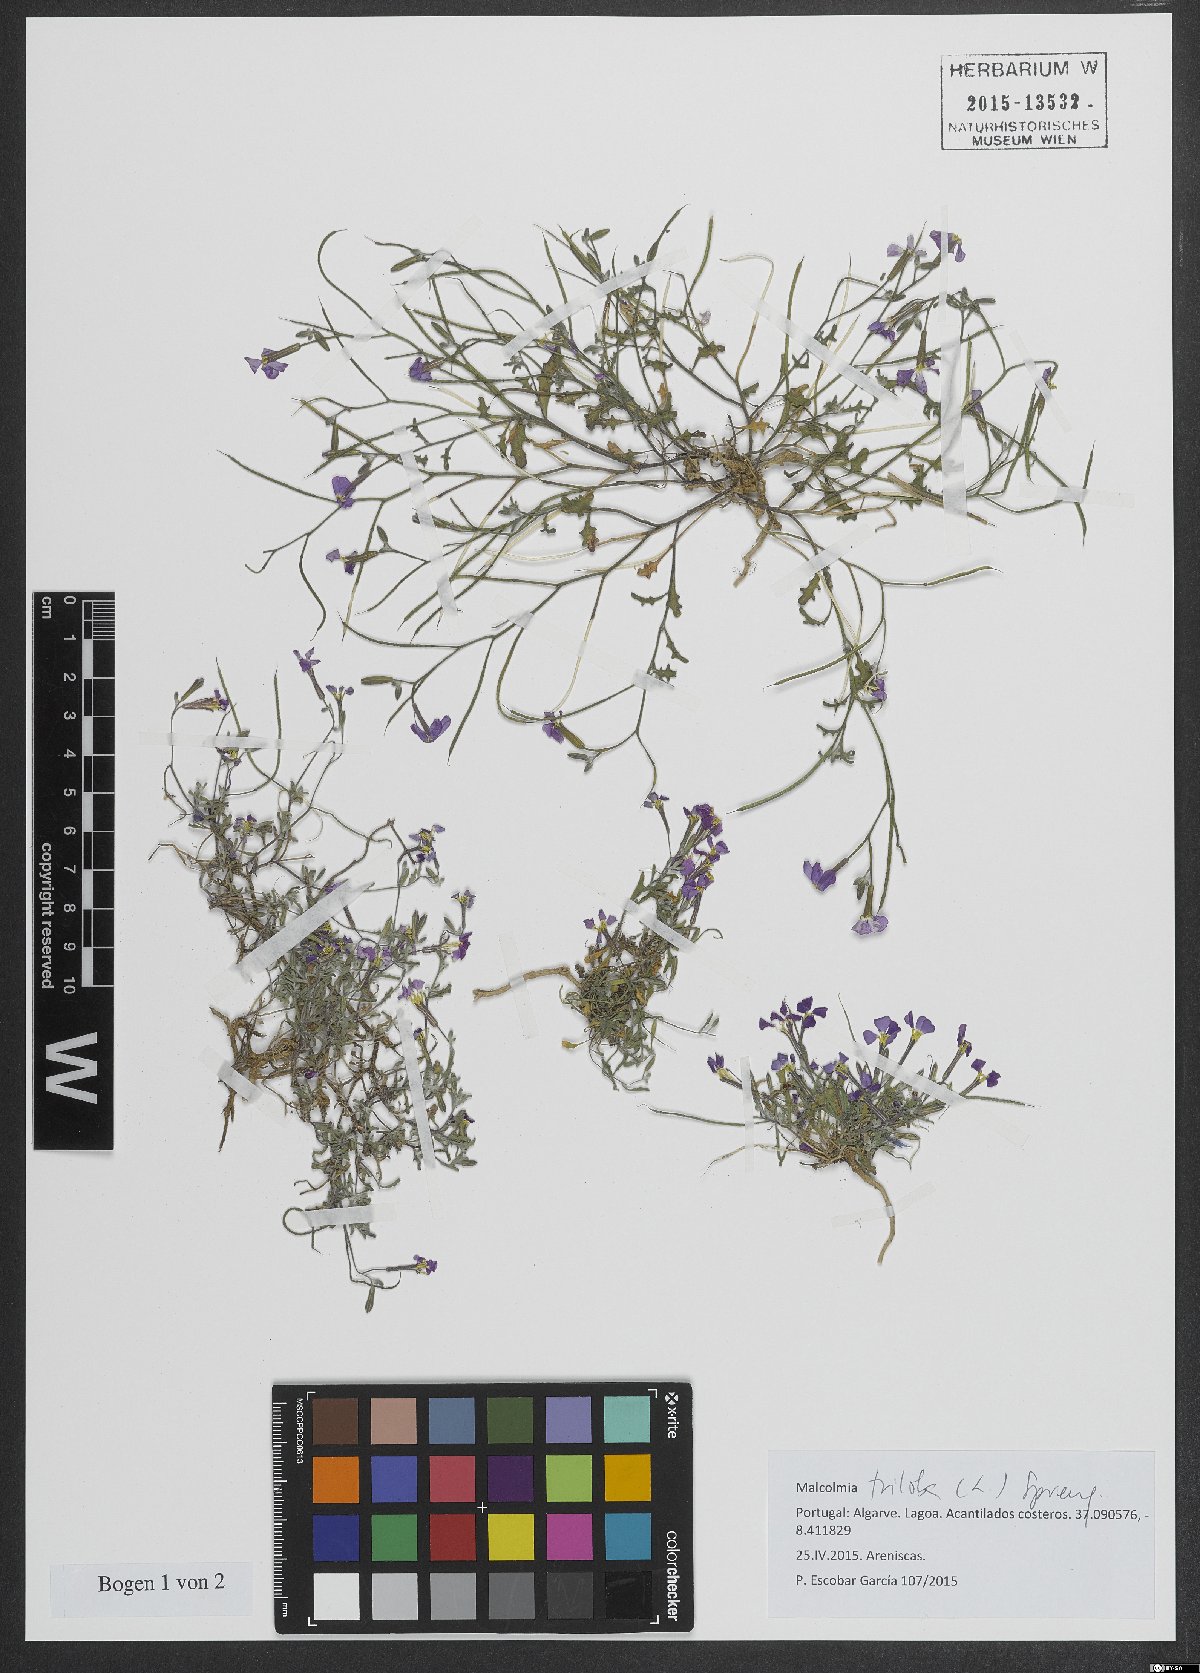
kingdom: Plantae
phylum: Tracheophyta
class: Magnoliopsida
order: Brassicales
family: Brassicaceae
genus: Marcuskochia
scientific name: Marcuskochia triloba
